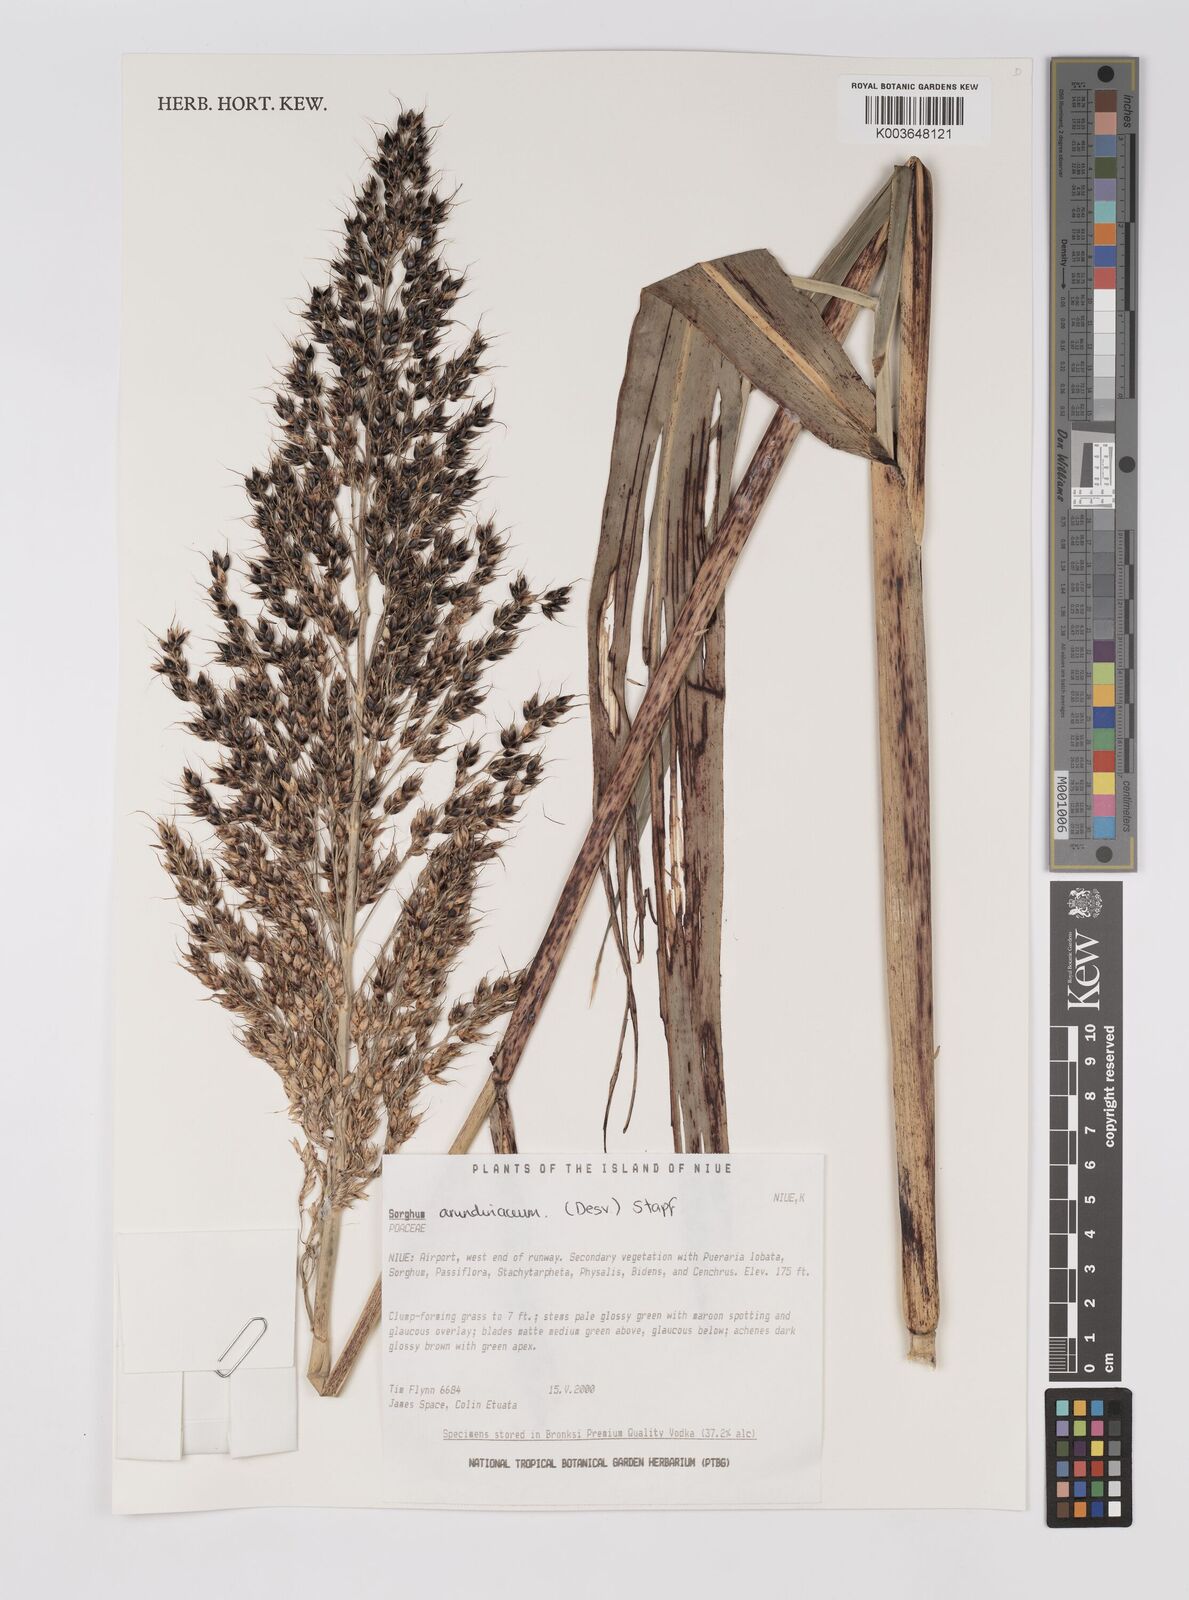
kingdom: Plantae
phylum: Tracheophyta
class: Liliopsida
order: Poales
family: Poaceae
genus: Sorghum
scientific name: Sorghum arundinaceum
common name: Sorghum
